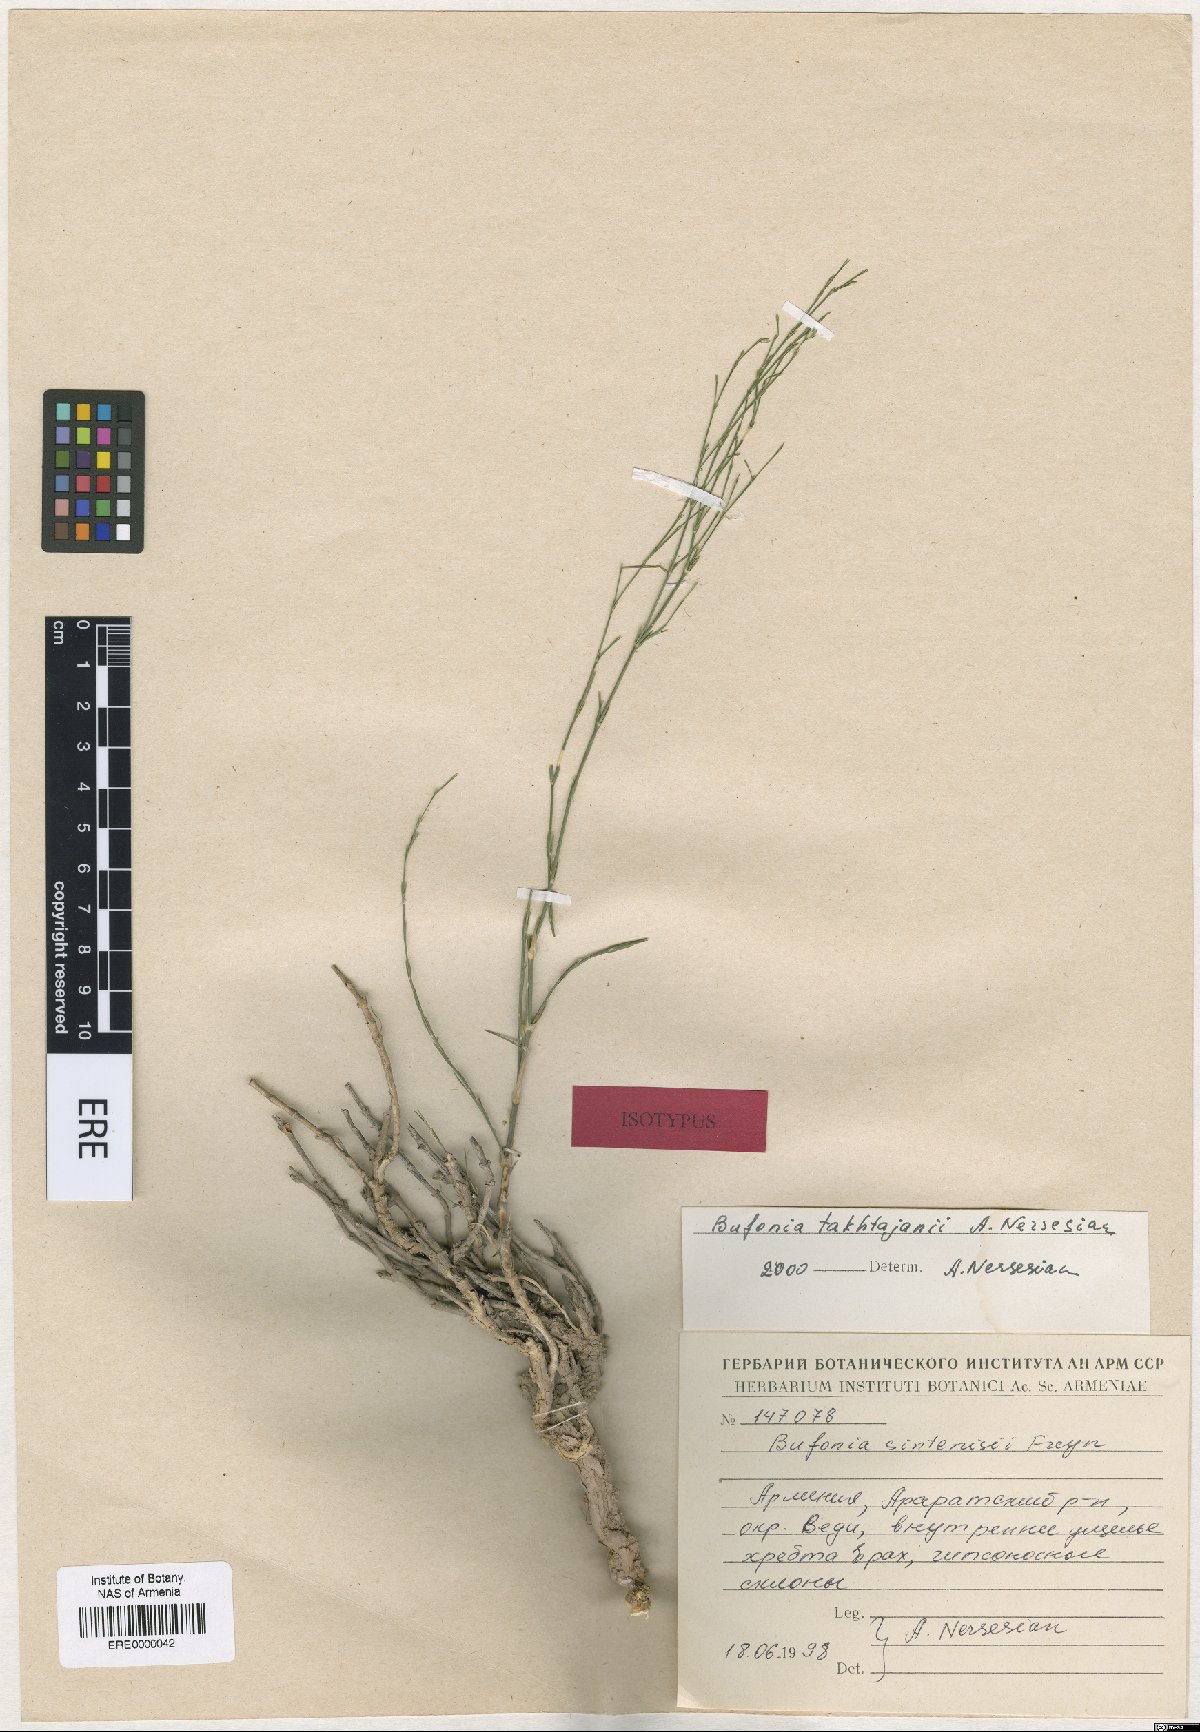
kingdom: Plantae
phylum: Tracheophyta
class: Magnoliopsida
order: Caryophyllales
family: Caryophyllaceae
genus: Bufonia
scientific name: Bufonia takhtajanii
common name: Takhtadjyan's bufonia
